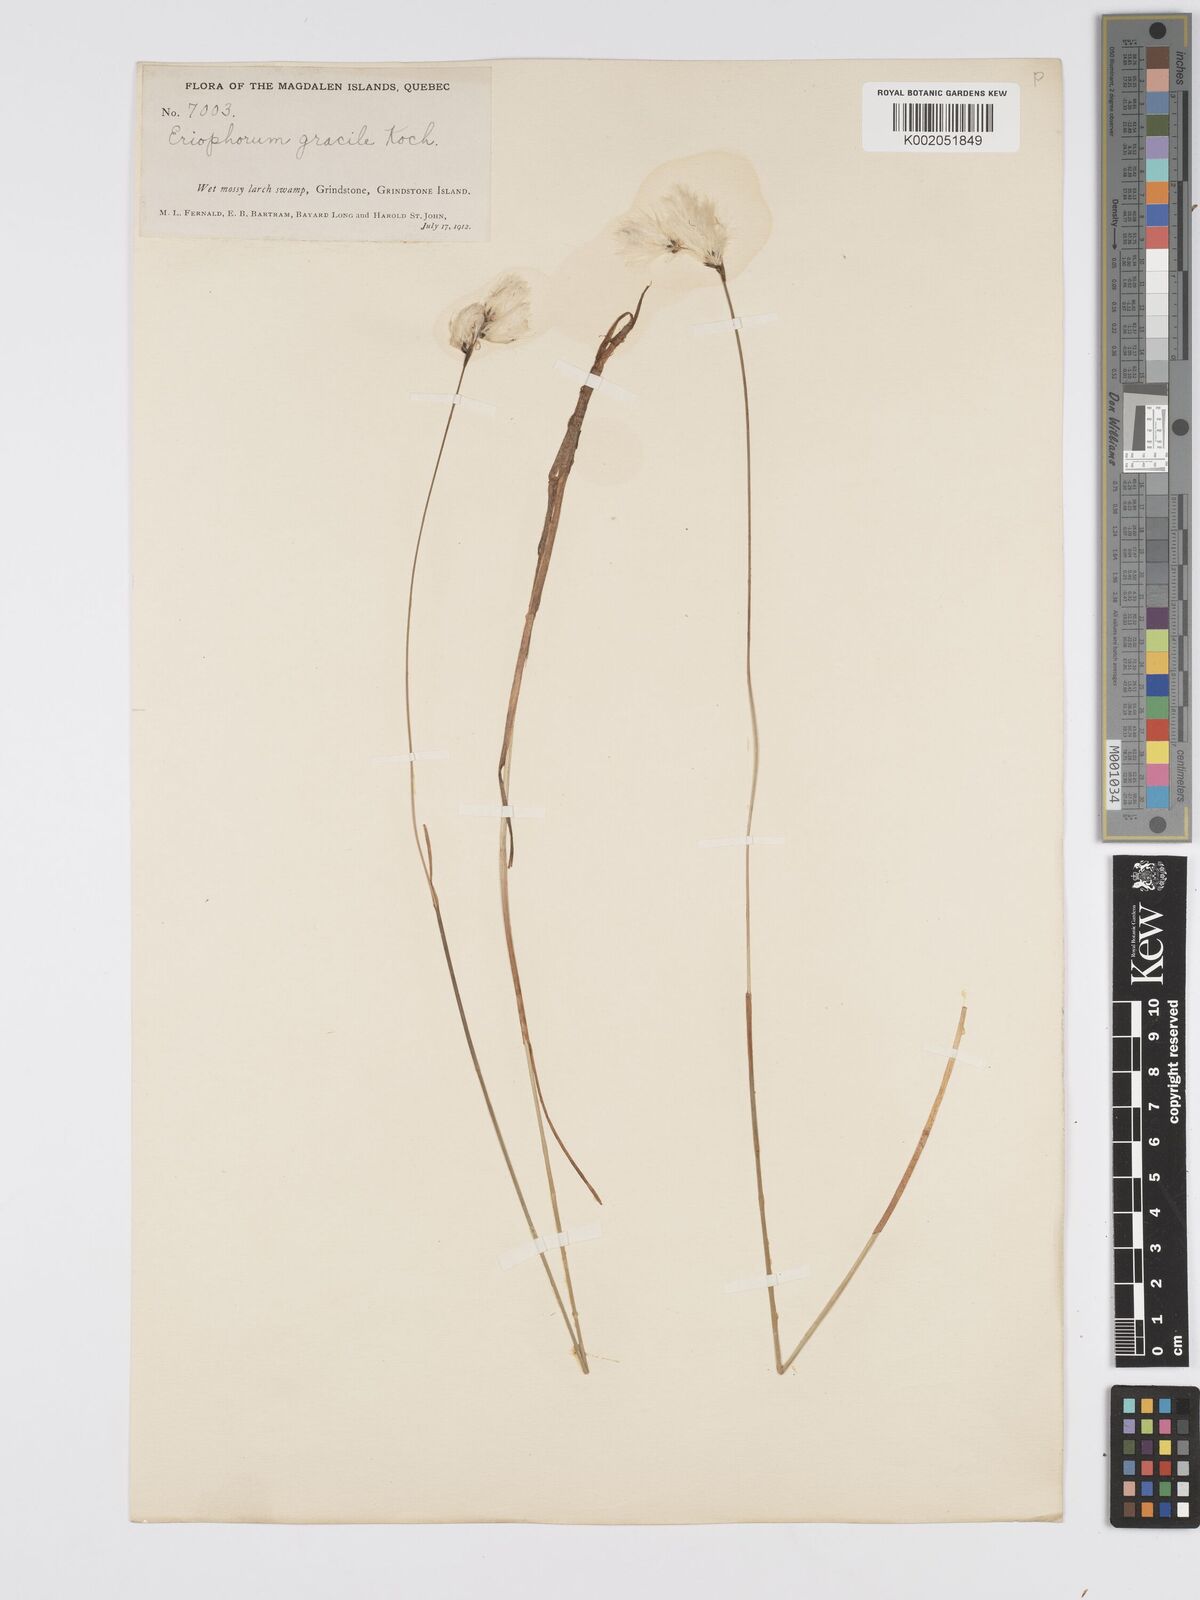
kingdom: Plantae
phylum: Tracheophyta
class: Liliopsida
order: Poales
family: Cyperaceae
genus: Eriophorum
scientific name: Eriophorum gracile
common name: Slender cottongrass
